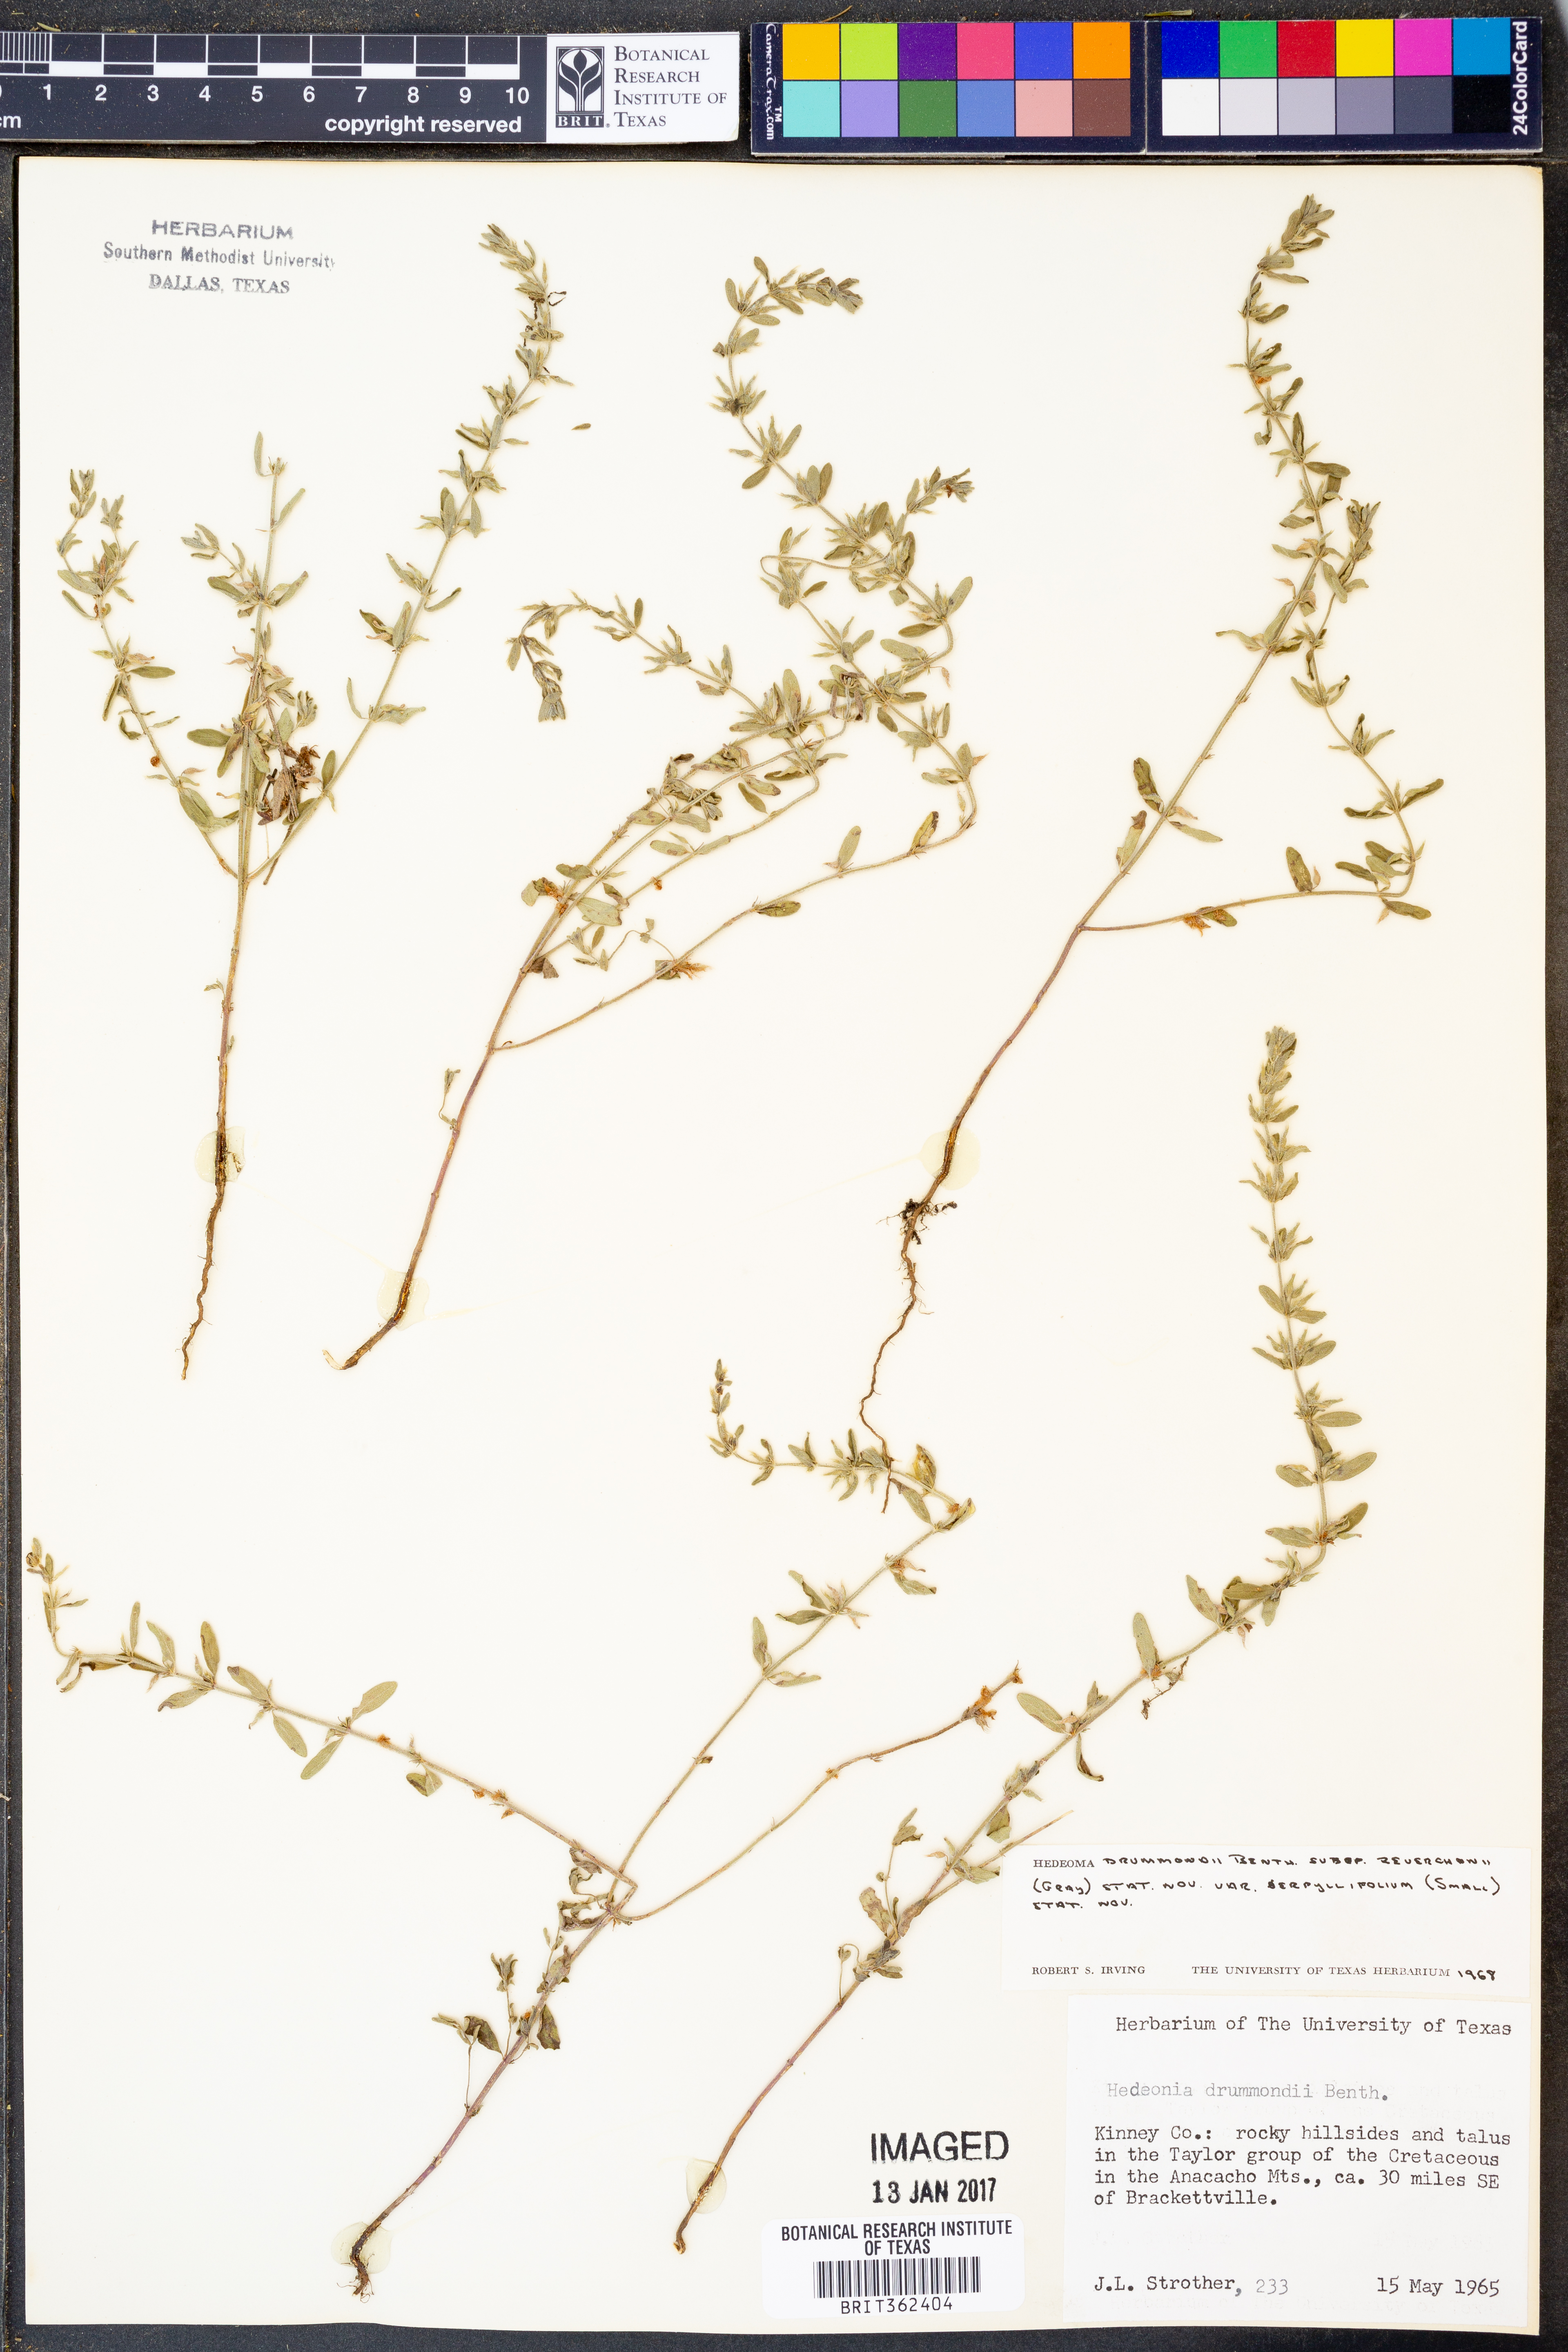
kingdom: Plantae
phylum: Tracheophyta
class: Magnoliopsida
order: Lamiales
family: Lamiaceae
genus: Hedeoma
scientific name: Hedeoma drummondii
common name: New mexico pennyroyal
